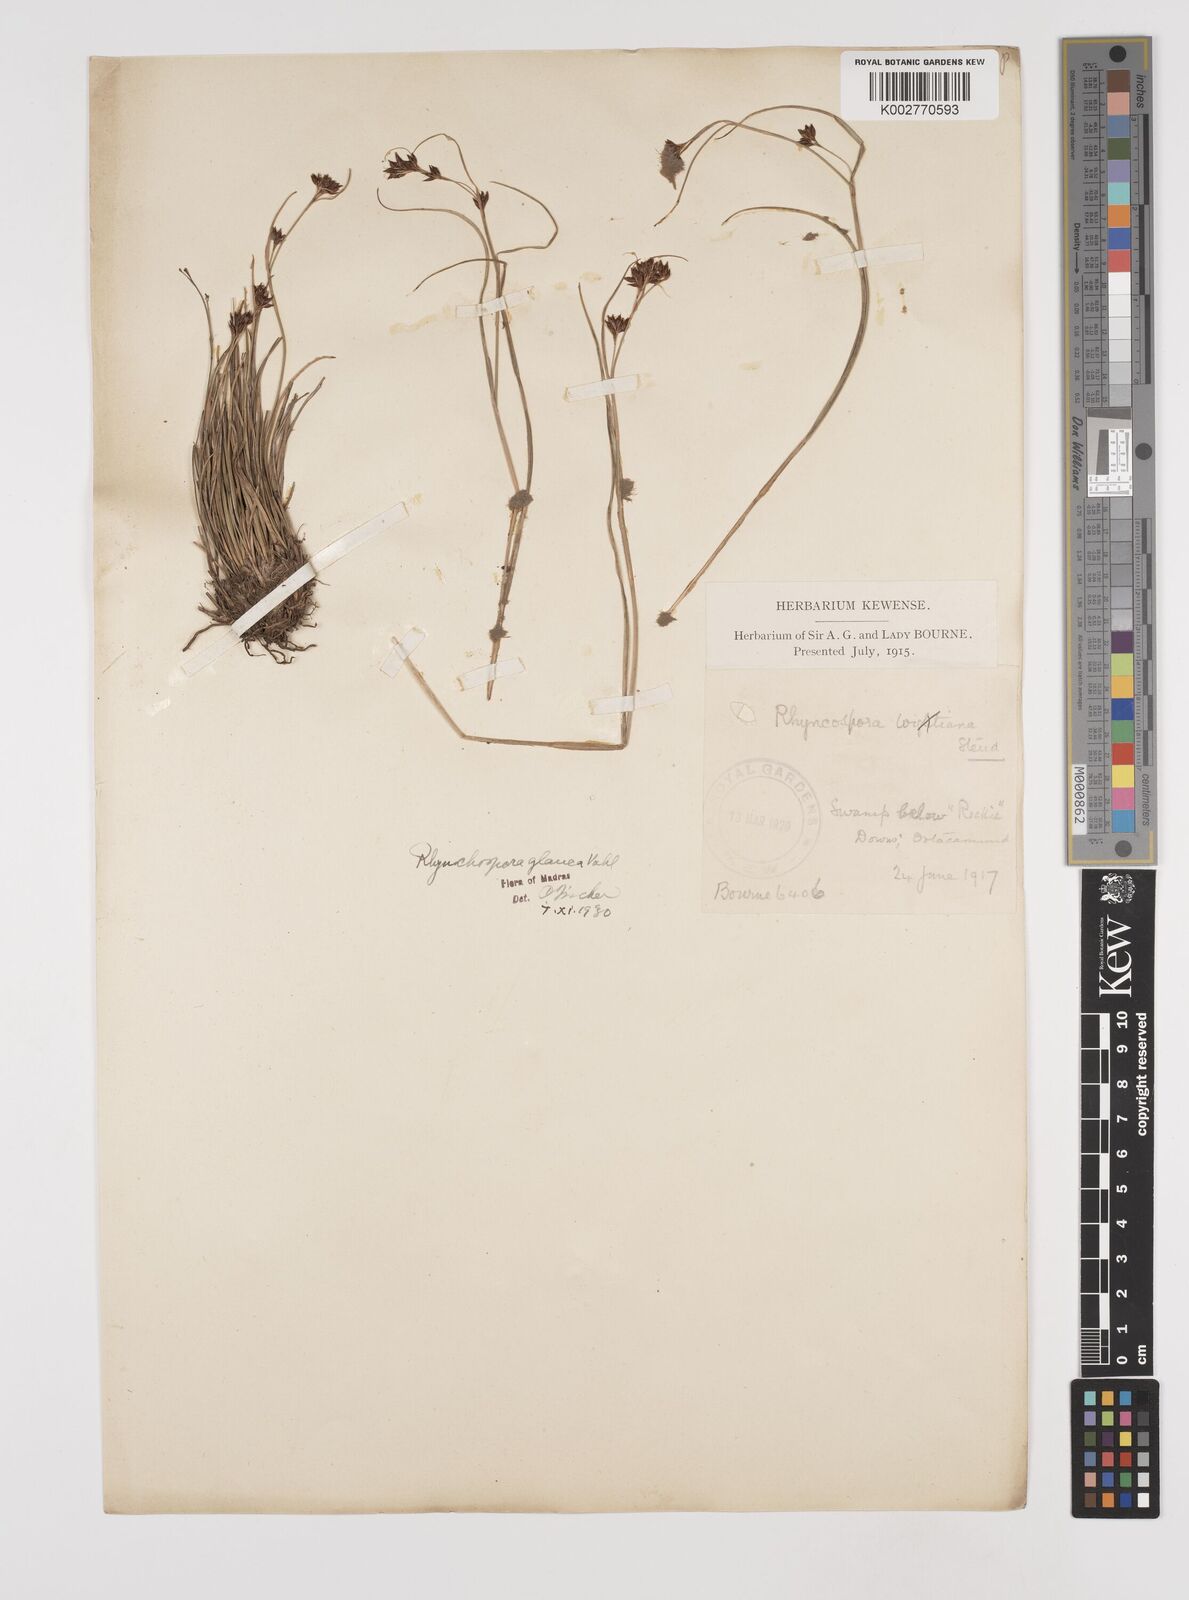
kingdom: Plantae
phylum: Tracheophyta
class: Liliopsida
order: Poales
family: Cyperaceae
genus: Rhynchospora
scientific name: Rhynchospora rugosa
